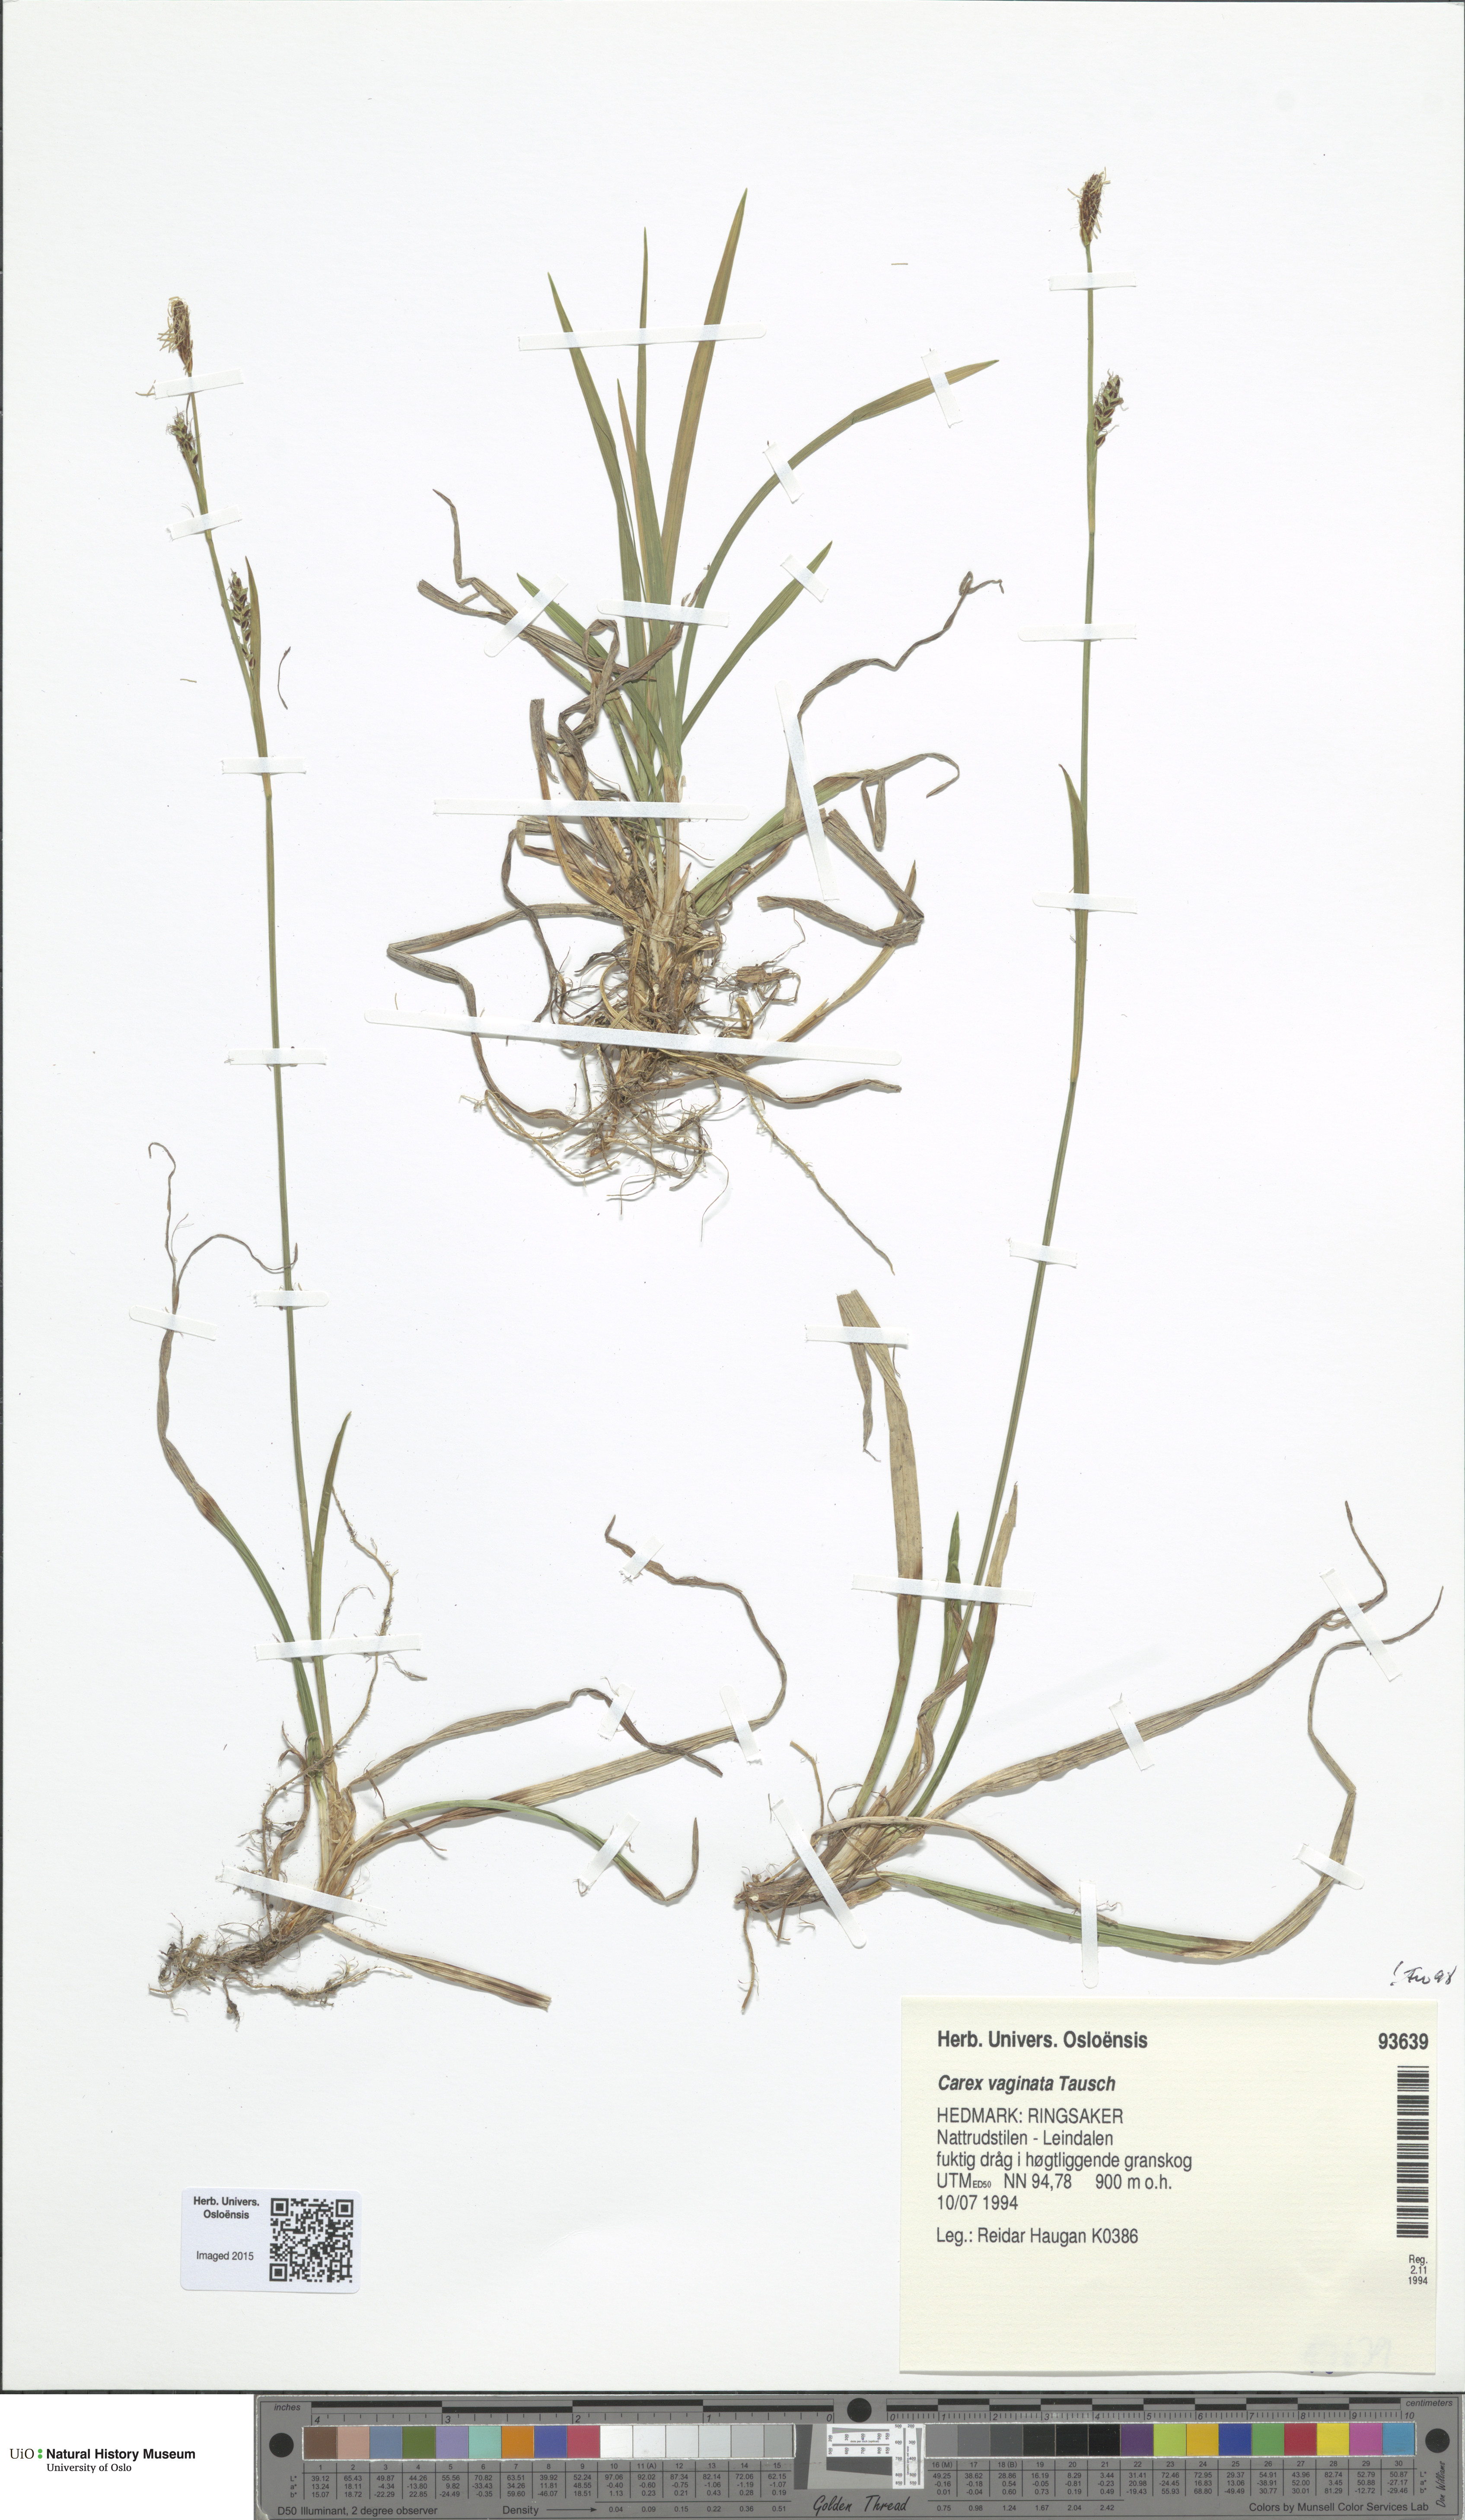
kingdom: Plantae
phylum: Tracheophyta
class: Liliopsida
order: Poales
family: Cyperaceae
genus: Carex
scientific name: Carex vaginata
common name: Sheathed sedge
